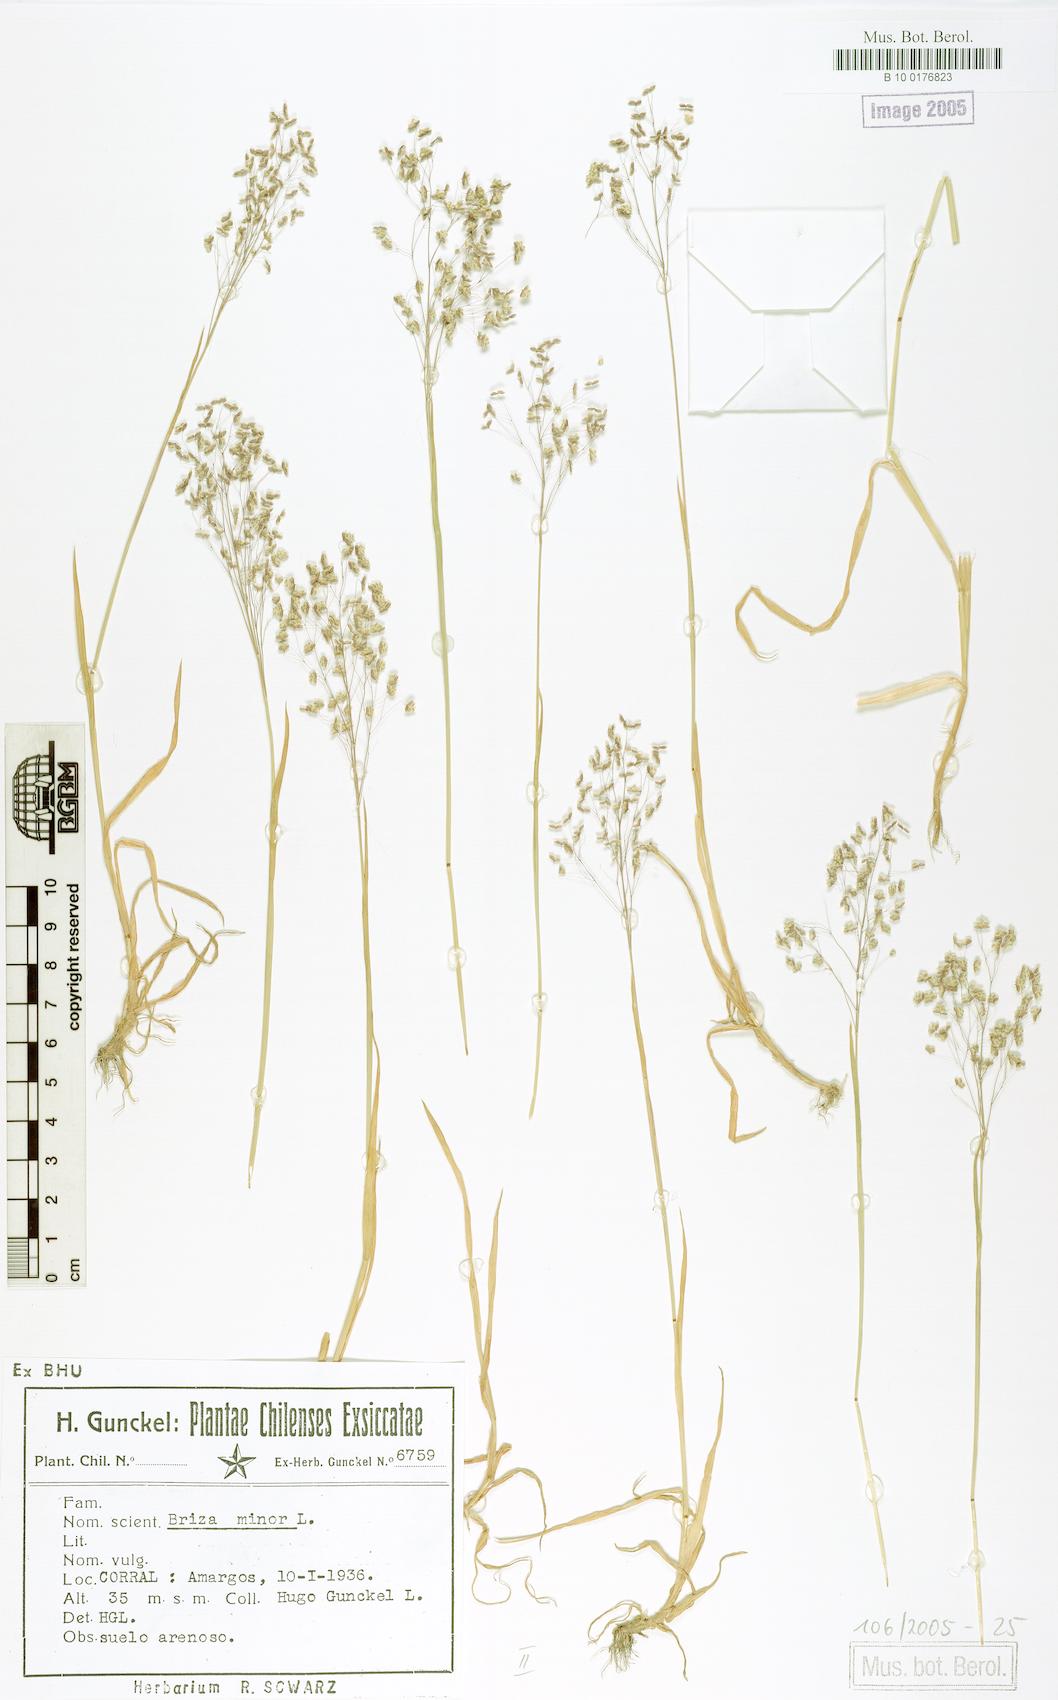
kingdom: Plantae
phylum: Tracheophyta
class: Liliopsida
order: Poales
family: Poaceae
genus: Briza
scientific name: Briza minor
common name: Lesser quaking-grass
